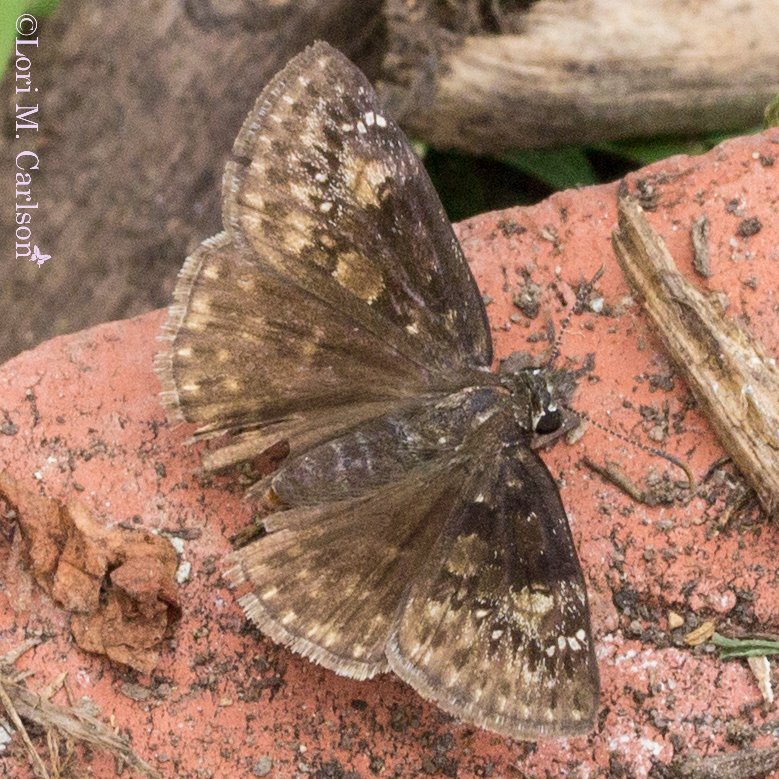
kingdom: Animalia
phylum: Arthropoda
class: Insecta
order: Lepidoptera
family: Hesperiidae
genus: Gesta
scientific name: Gesta
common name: Wild Indigo Duskywing
